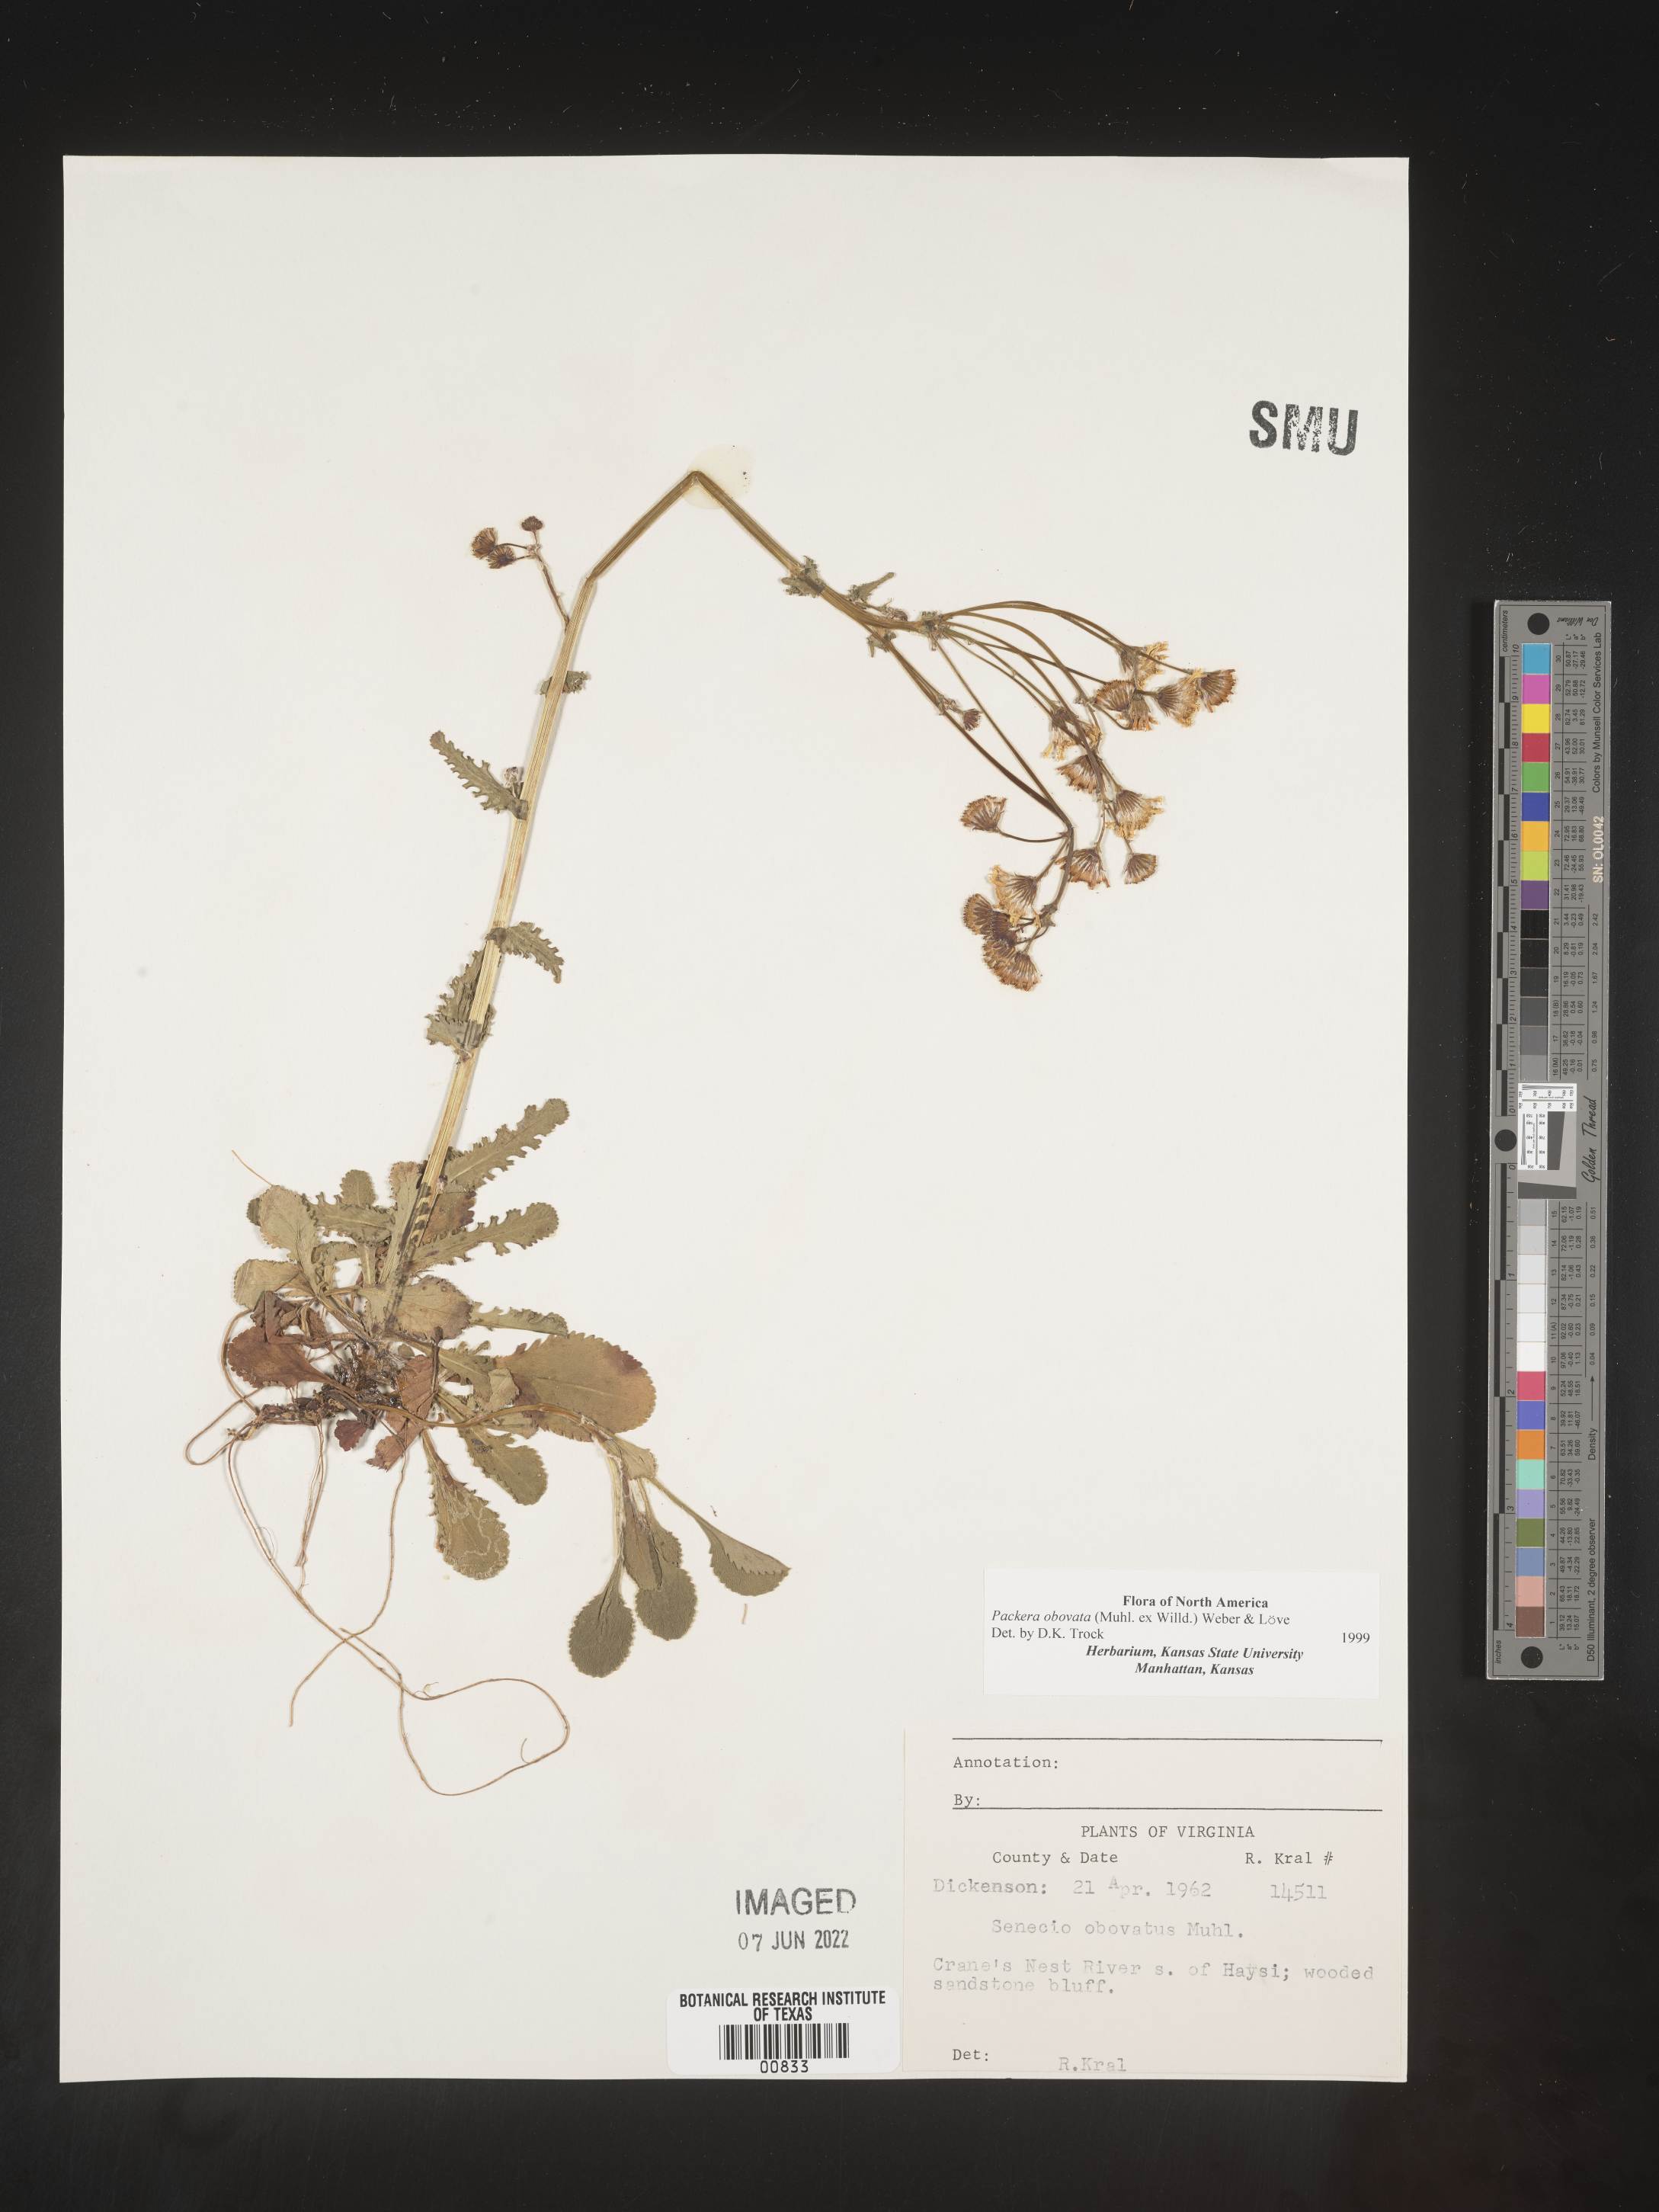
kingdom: Plantae
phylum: Tracheophyta
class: Magnoliopsida
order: Asterales
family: Asteraceae
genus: Packera
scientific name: Packera obovata
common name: Round-leaf ragwort
